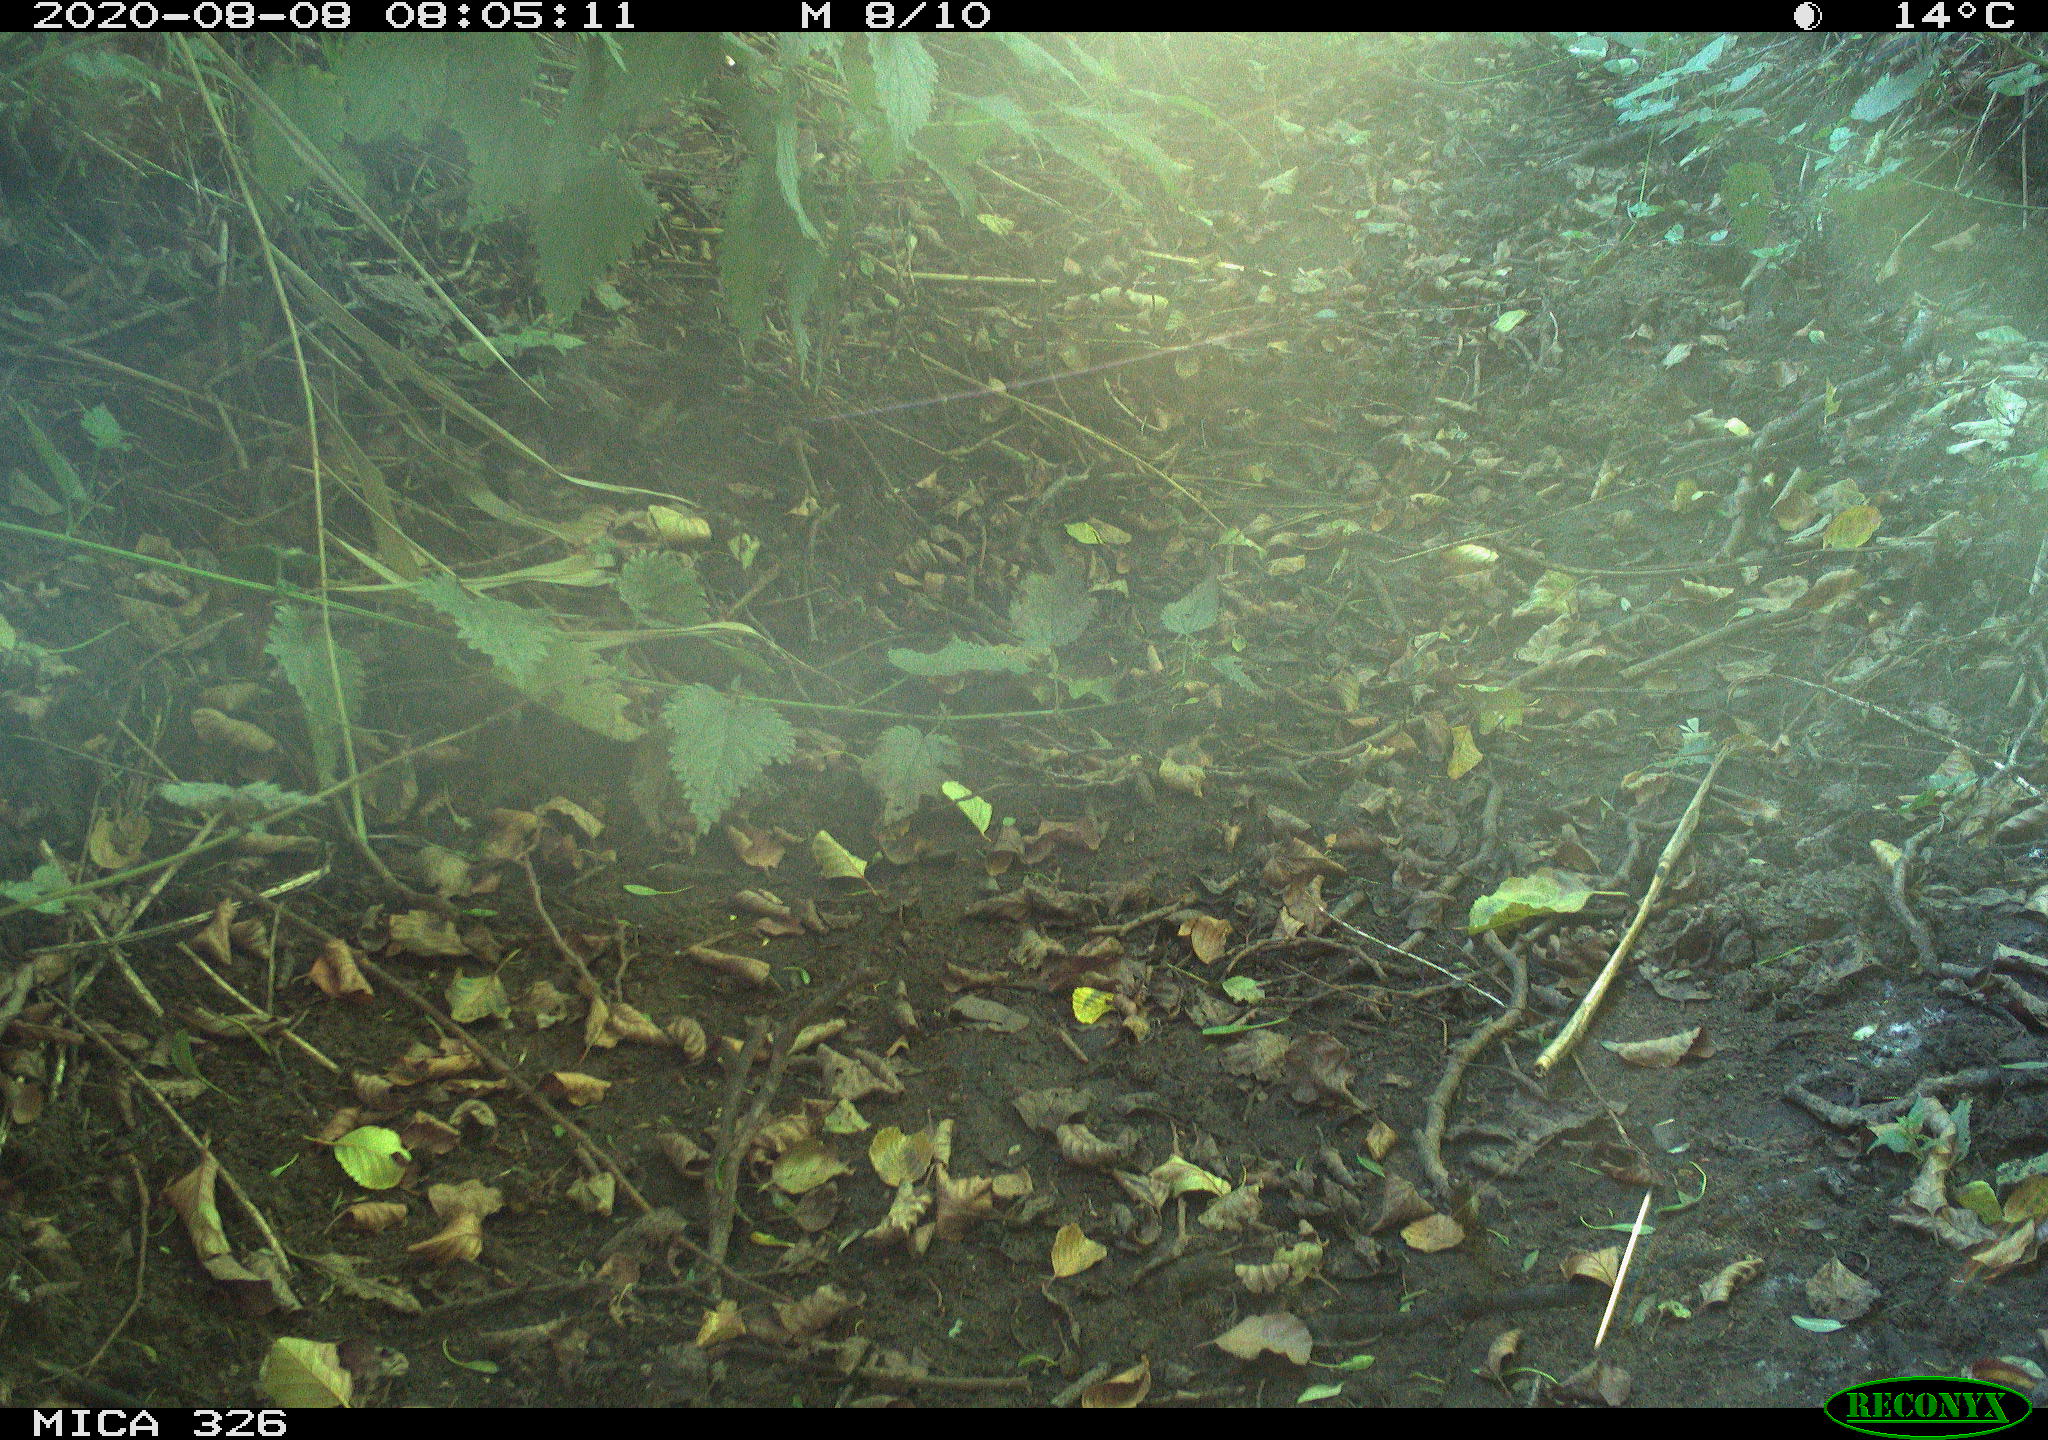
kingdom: Animalia
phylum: Chordata
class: Mammalia
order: Rodentia
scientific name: Rodentia
